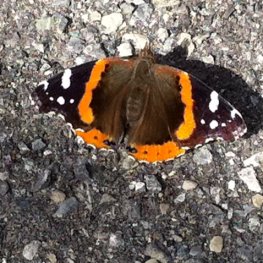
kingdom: Animalia
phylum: Arthropoda
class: Insecta
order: Lepidoptera
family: Nymphalidae
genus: Vanessa
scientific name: Vanessa atalanta
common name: Red Admiral
